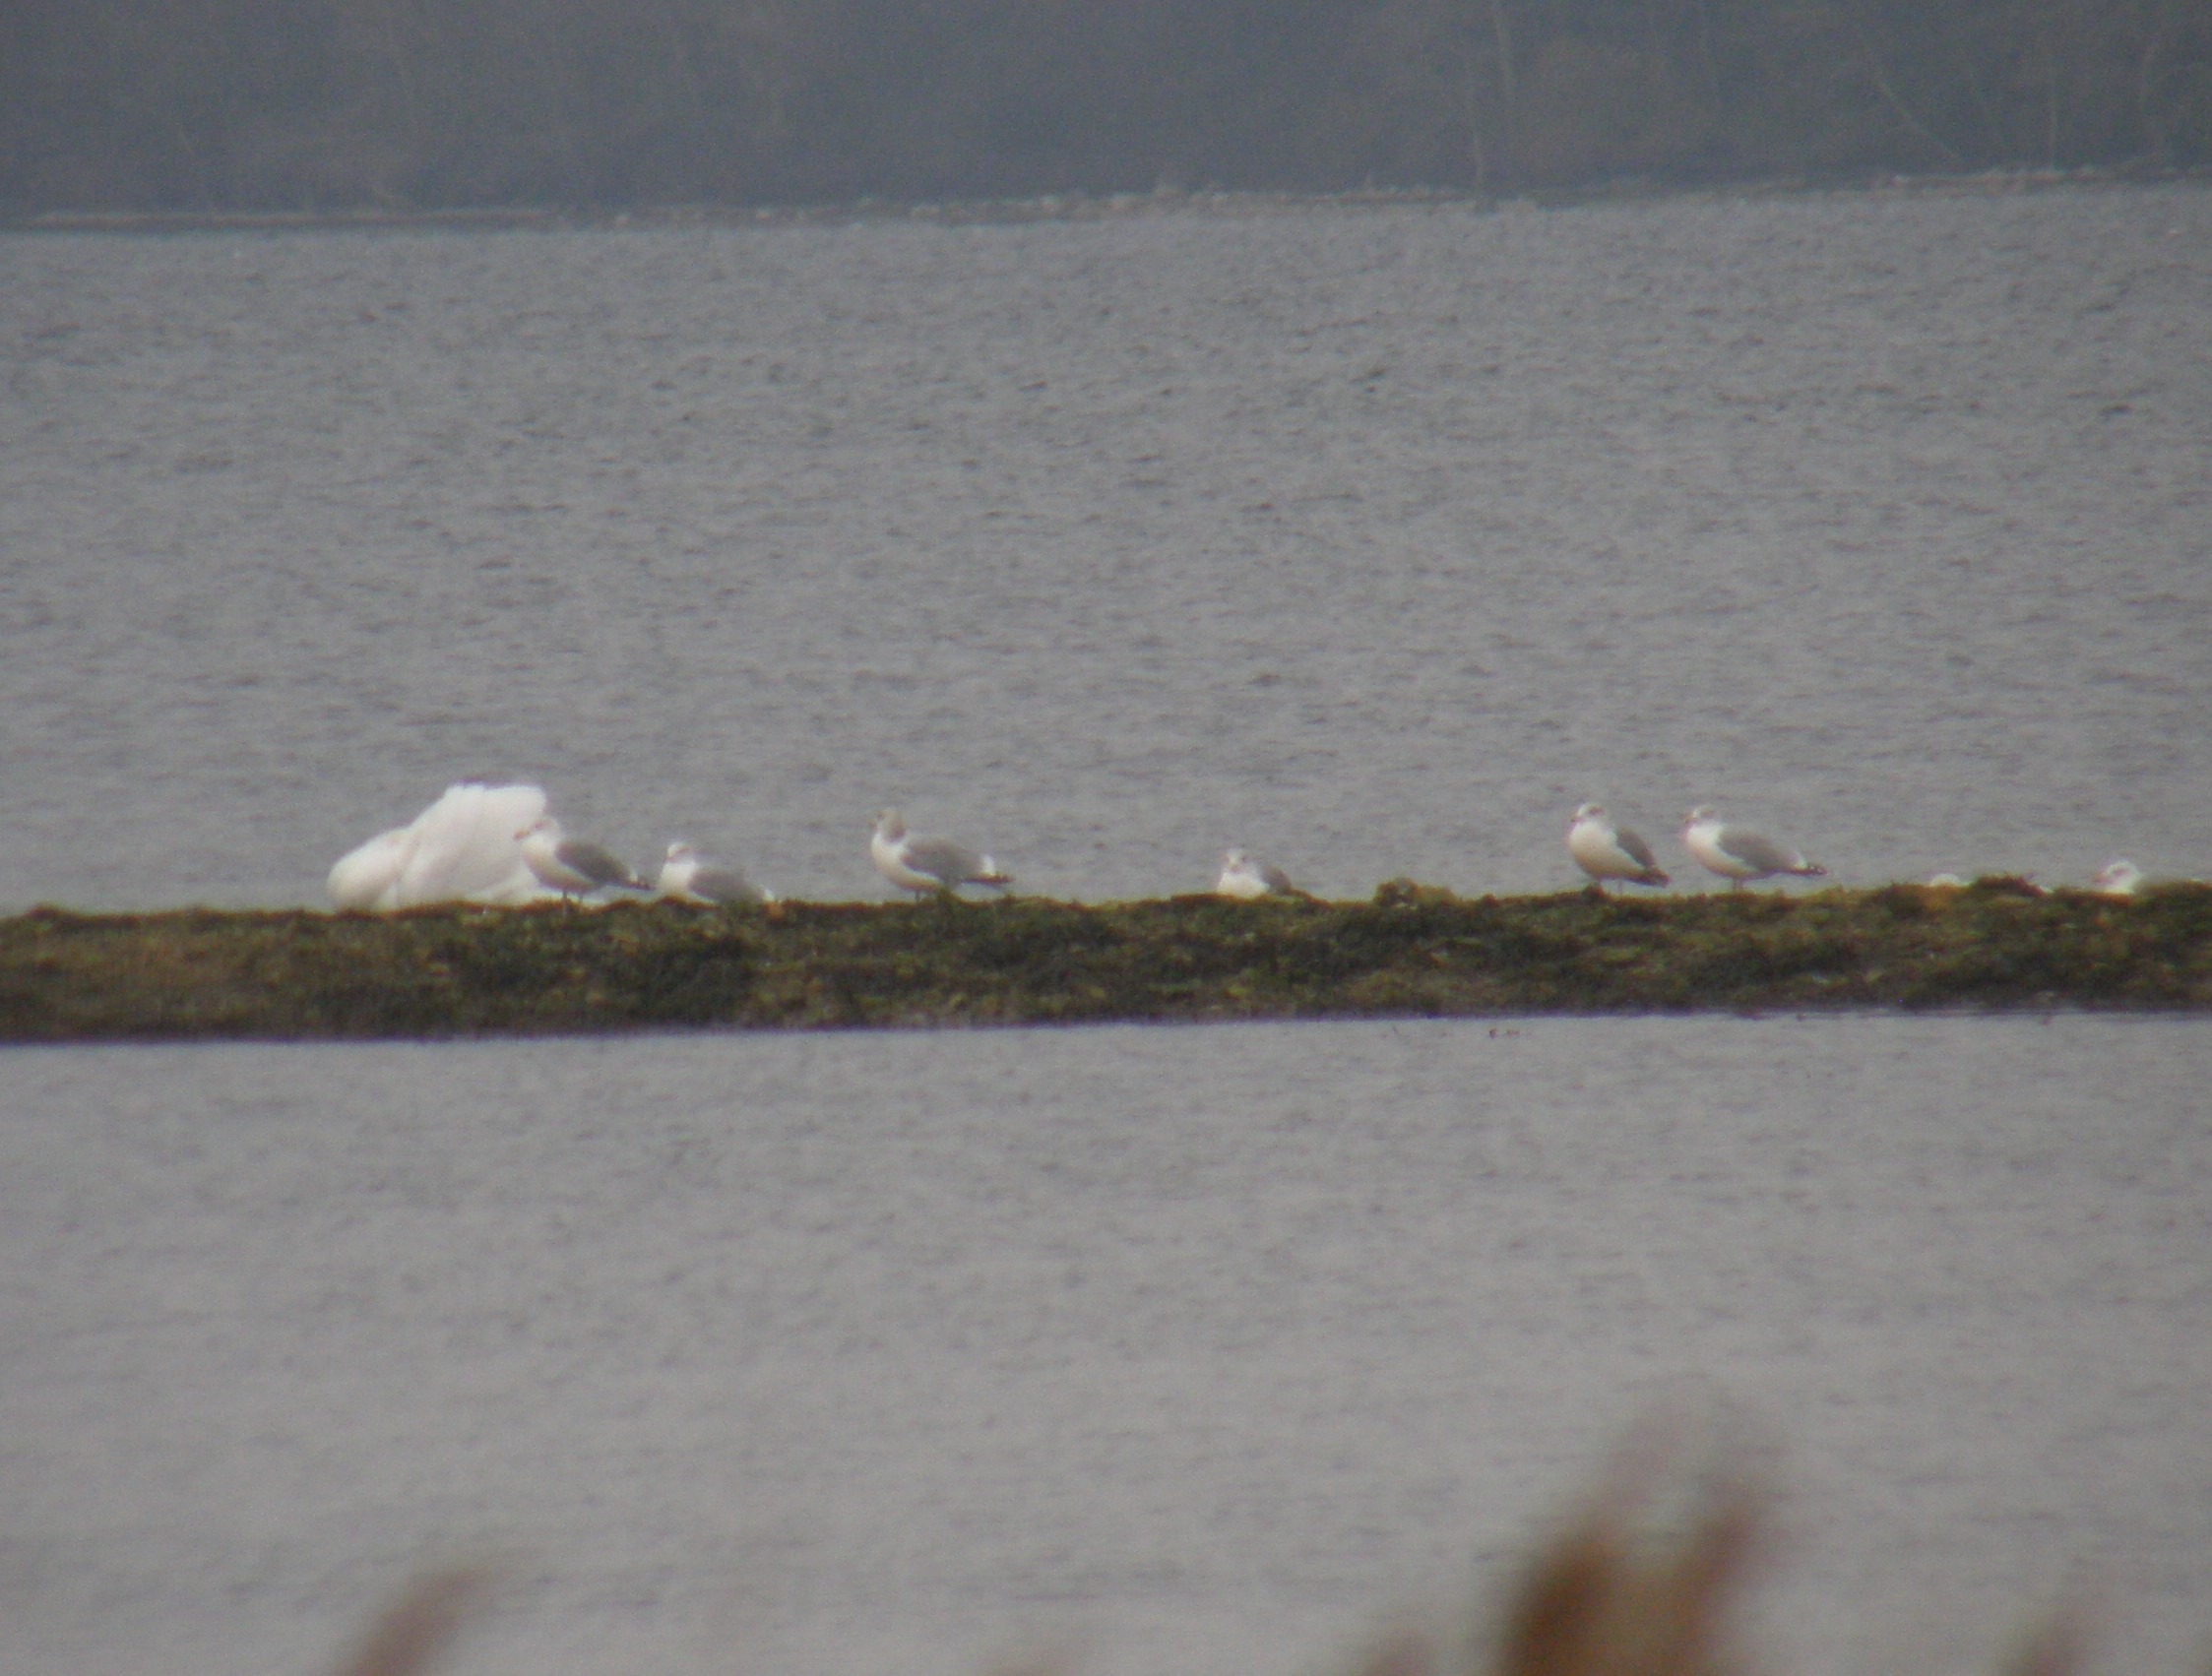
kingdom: Animalia
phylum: Chordata
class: Aves
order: Charadriiformes
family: Laridae
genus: Larus
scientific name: Larus argentatus
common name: Sølvmåge
